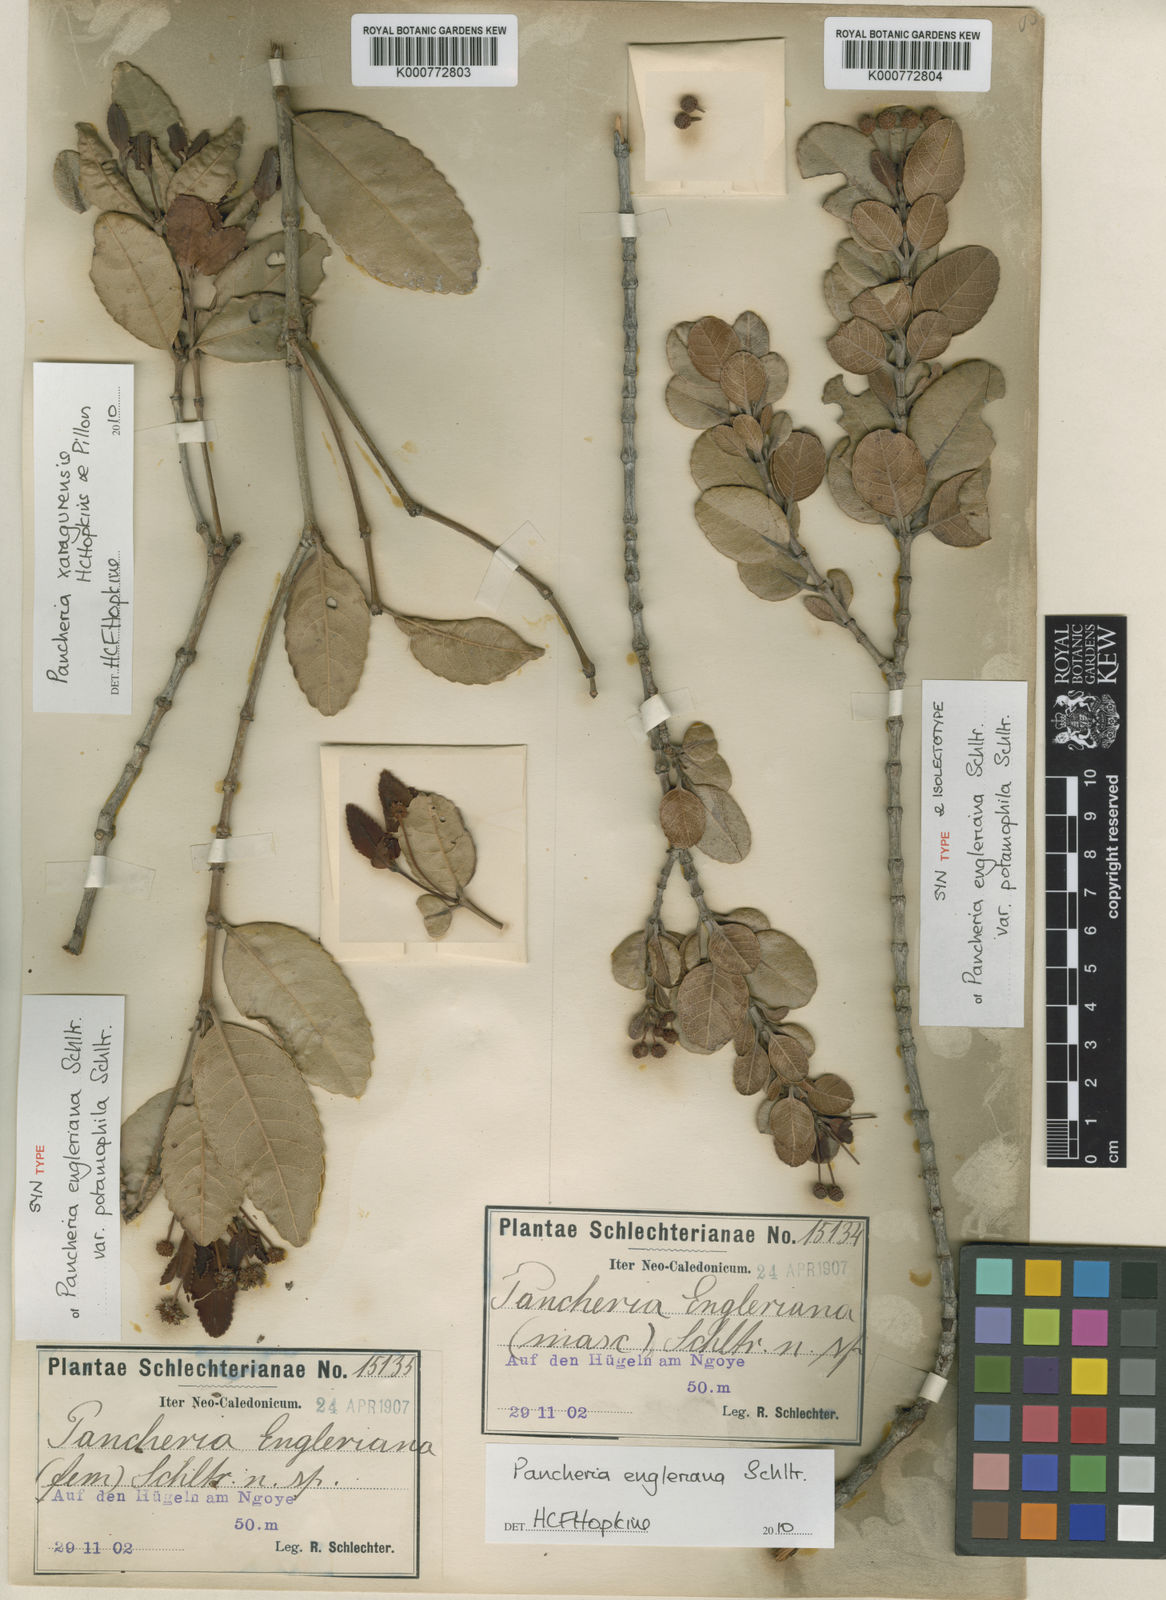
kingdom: Plantae
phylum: Tracheophyta
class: Magnoliopsida
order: Oxalidales
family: Cunoniaceae
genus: Pancheria
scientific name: Pancheria engleriana
